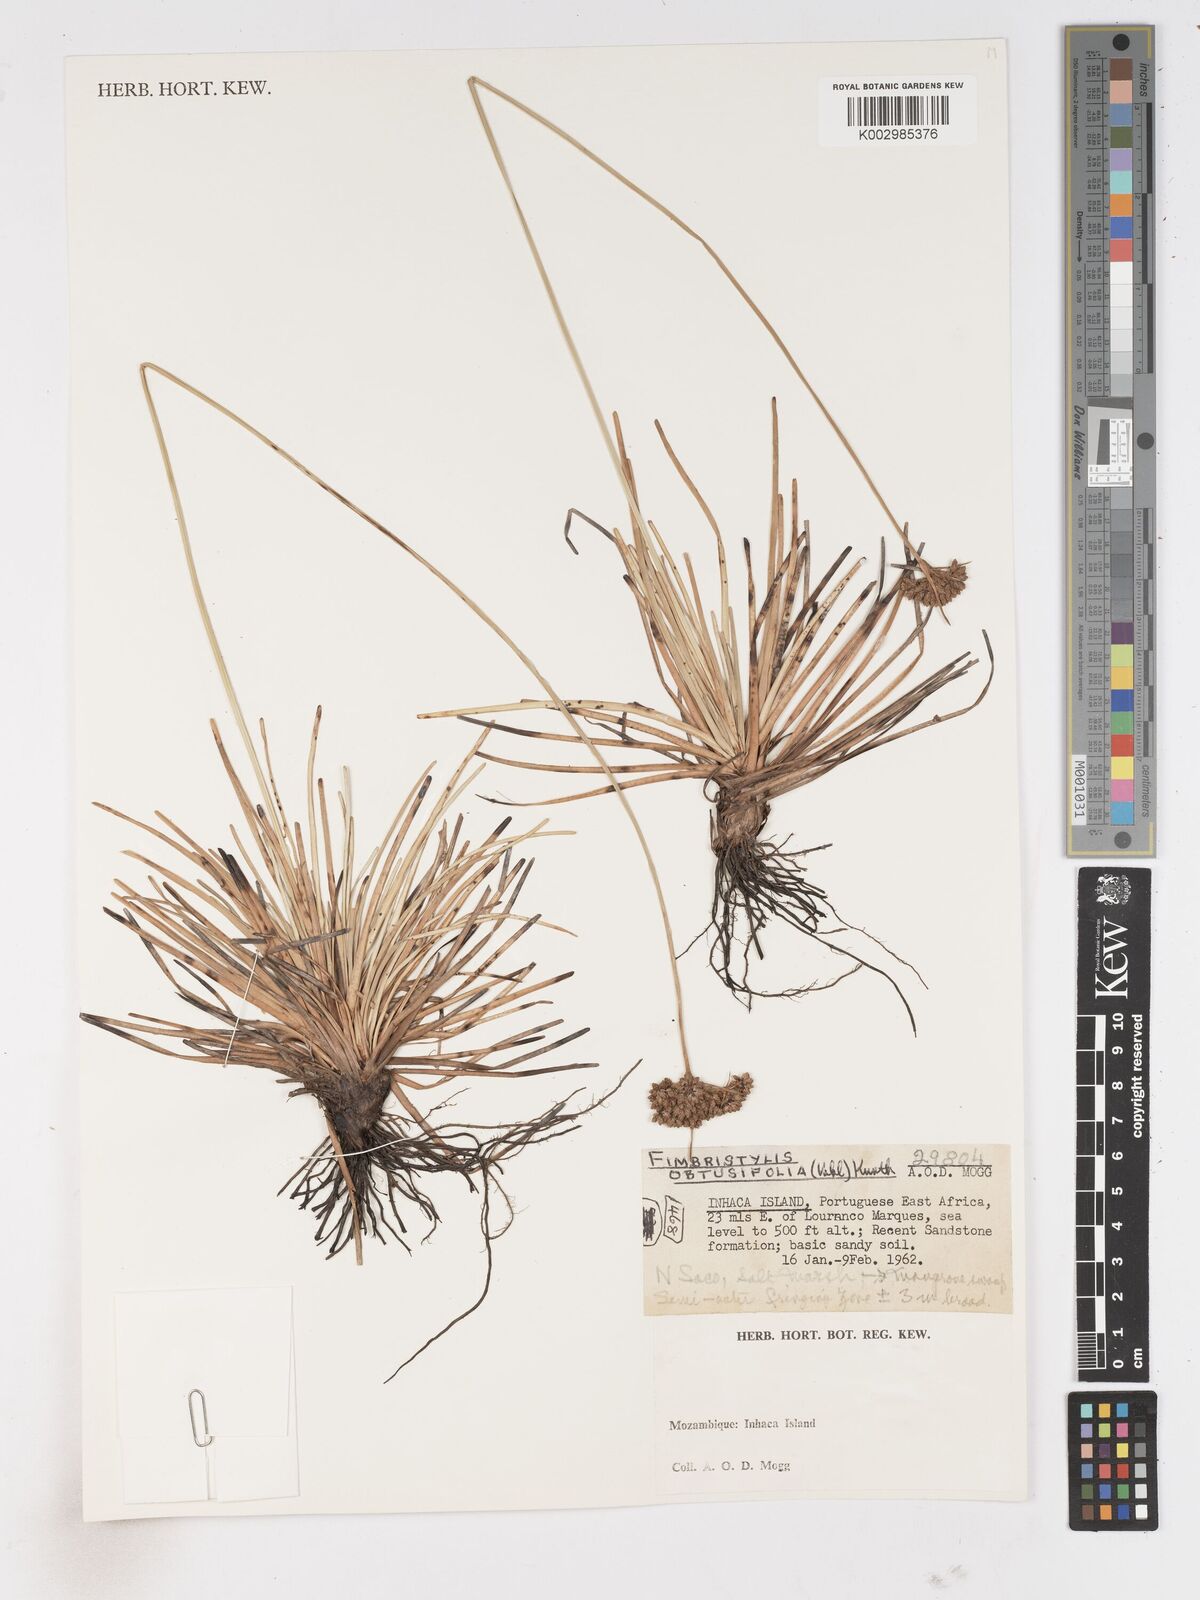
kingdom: Plantae
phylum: Tracheophyta
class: Liliopsida
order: Poales
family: Cyperaceae
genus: Fimbristylis
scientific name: Fimbristylis cymosa
